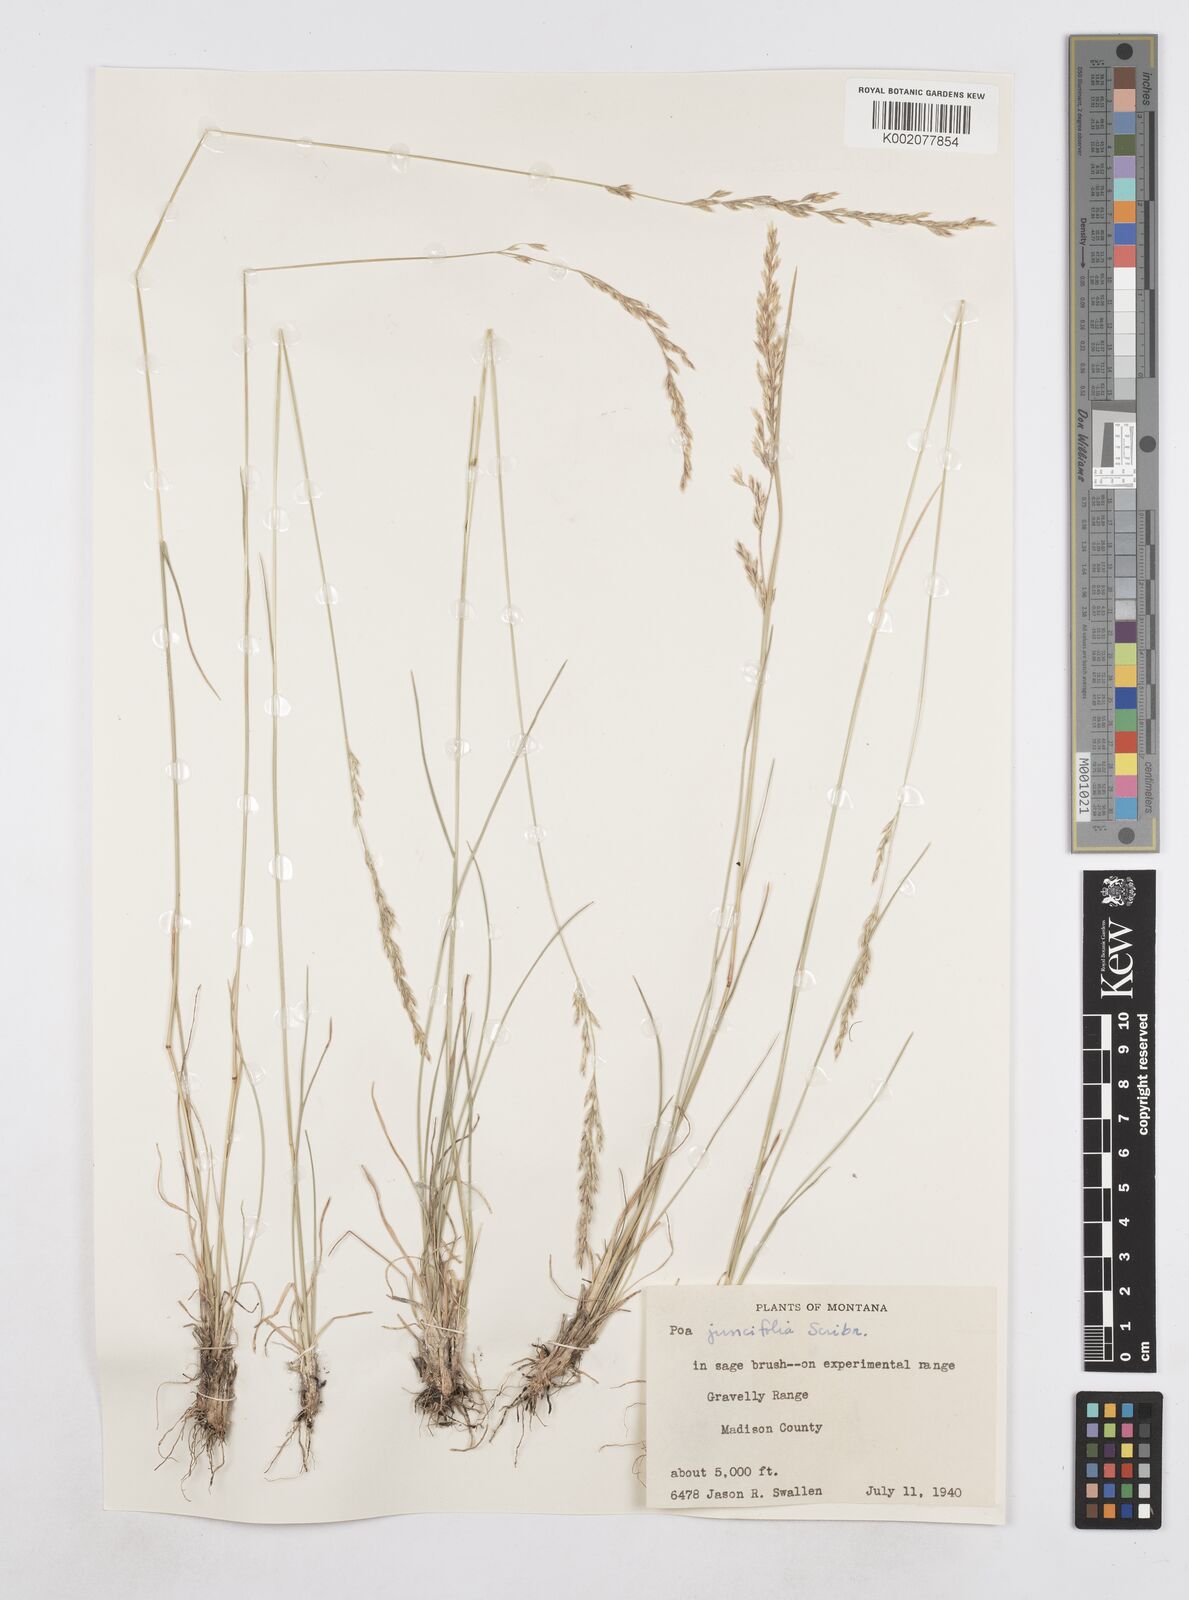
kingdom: Plantae
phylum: Tracheophyta
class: Liliopsida
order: Poales
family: Poaceae
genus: Poa
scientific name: Poa secunda
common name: Sandberg bluegrass
